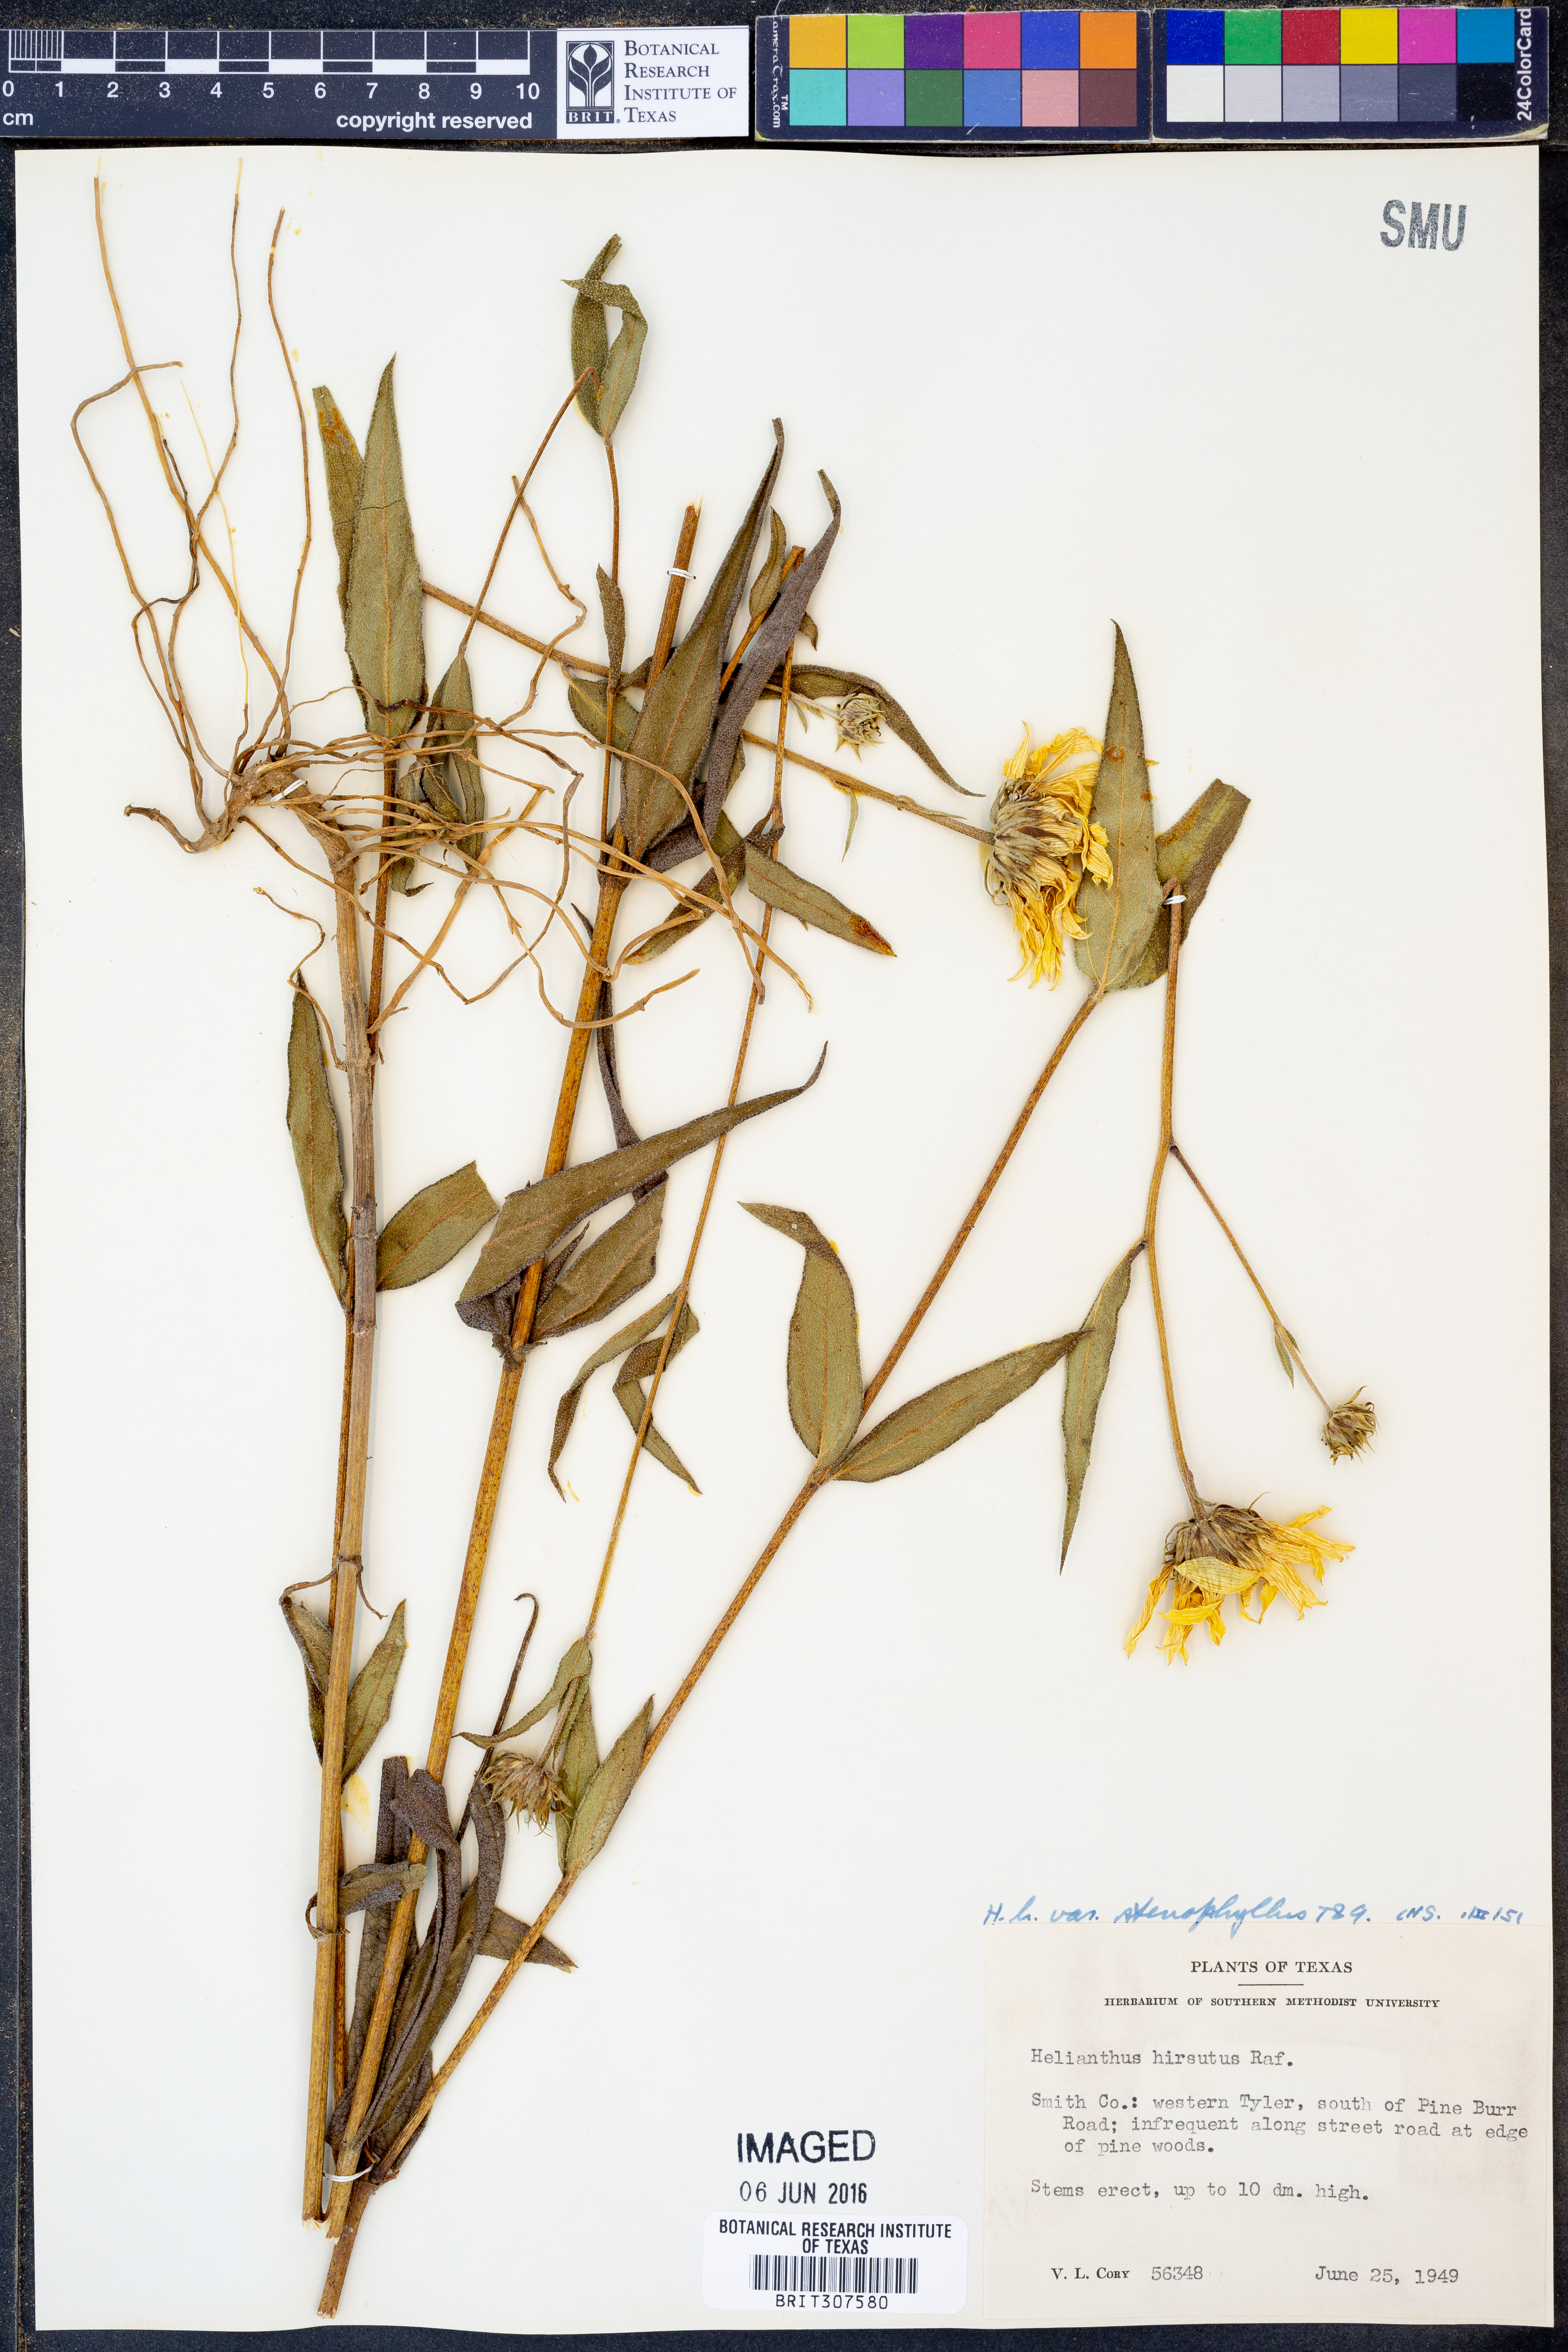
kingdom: Plantae
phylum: Tracheophyta
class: Magnoliopsida
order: Asterales
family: Asteraceae
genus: Helianthus
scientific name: Helianthus hirsutus
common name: Hairy sunflower
